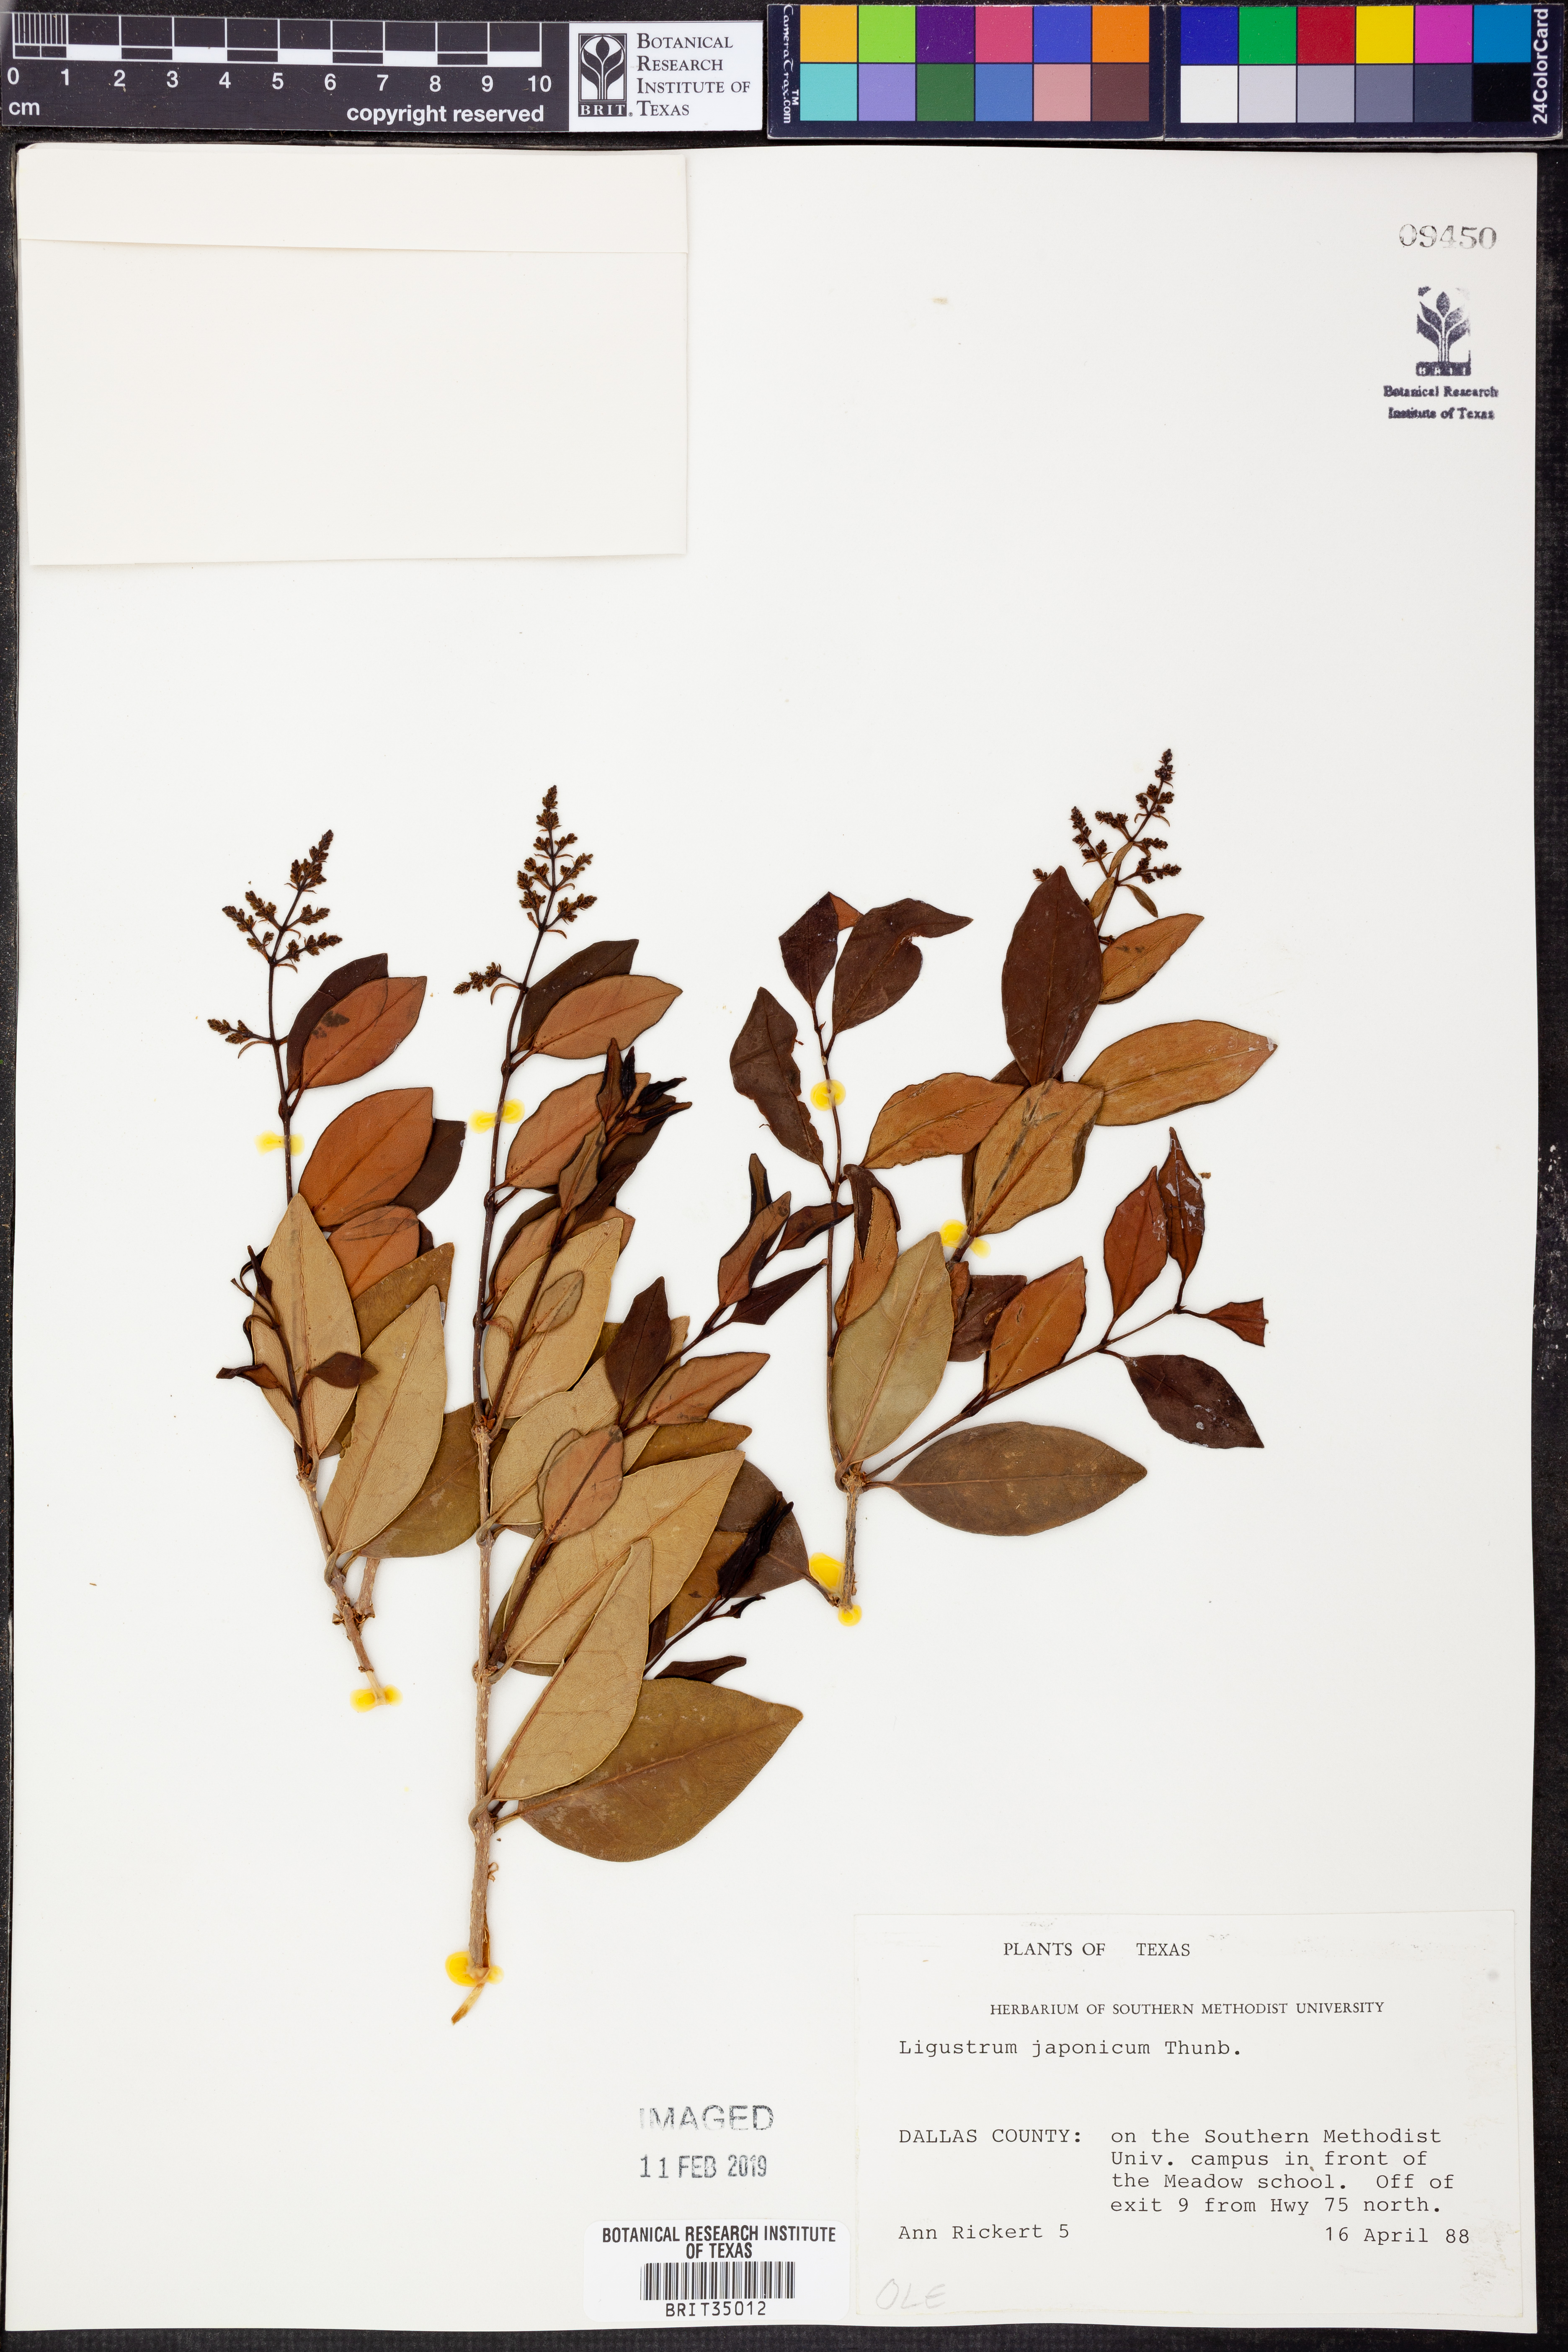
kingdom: Plantae
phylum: Tracheophyta
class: Magnoliopsida
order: Lamiales
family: Oleaceae
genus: Ligustrum
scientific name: Ligustrum japonicum
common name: Japanese privet
